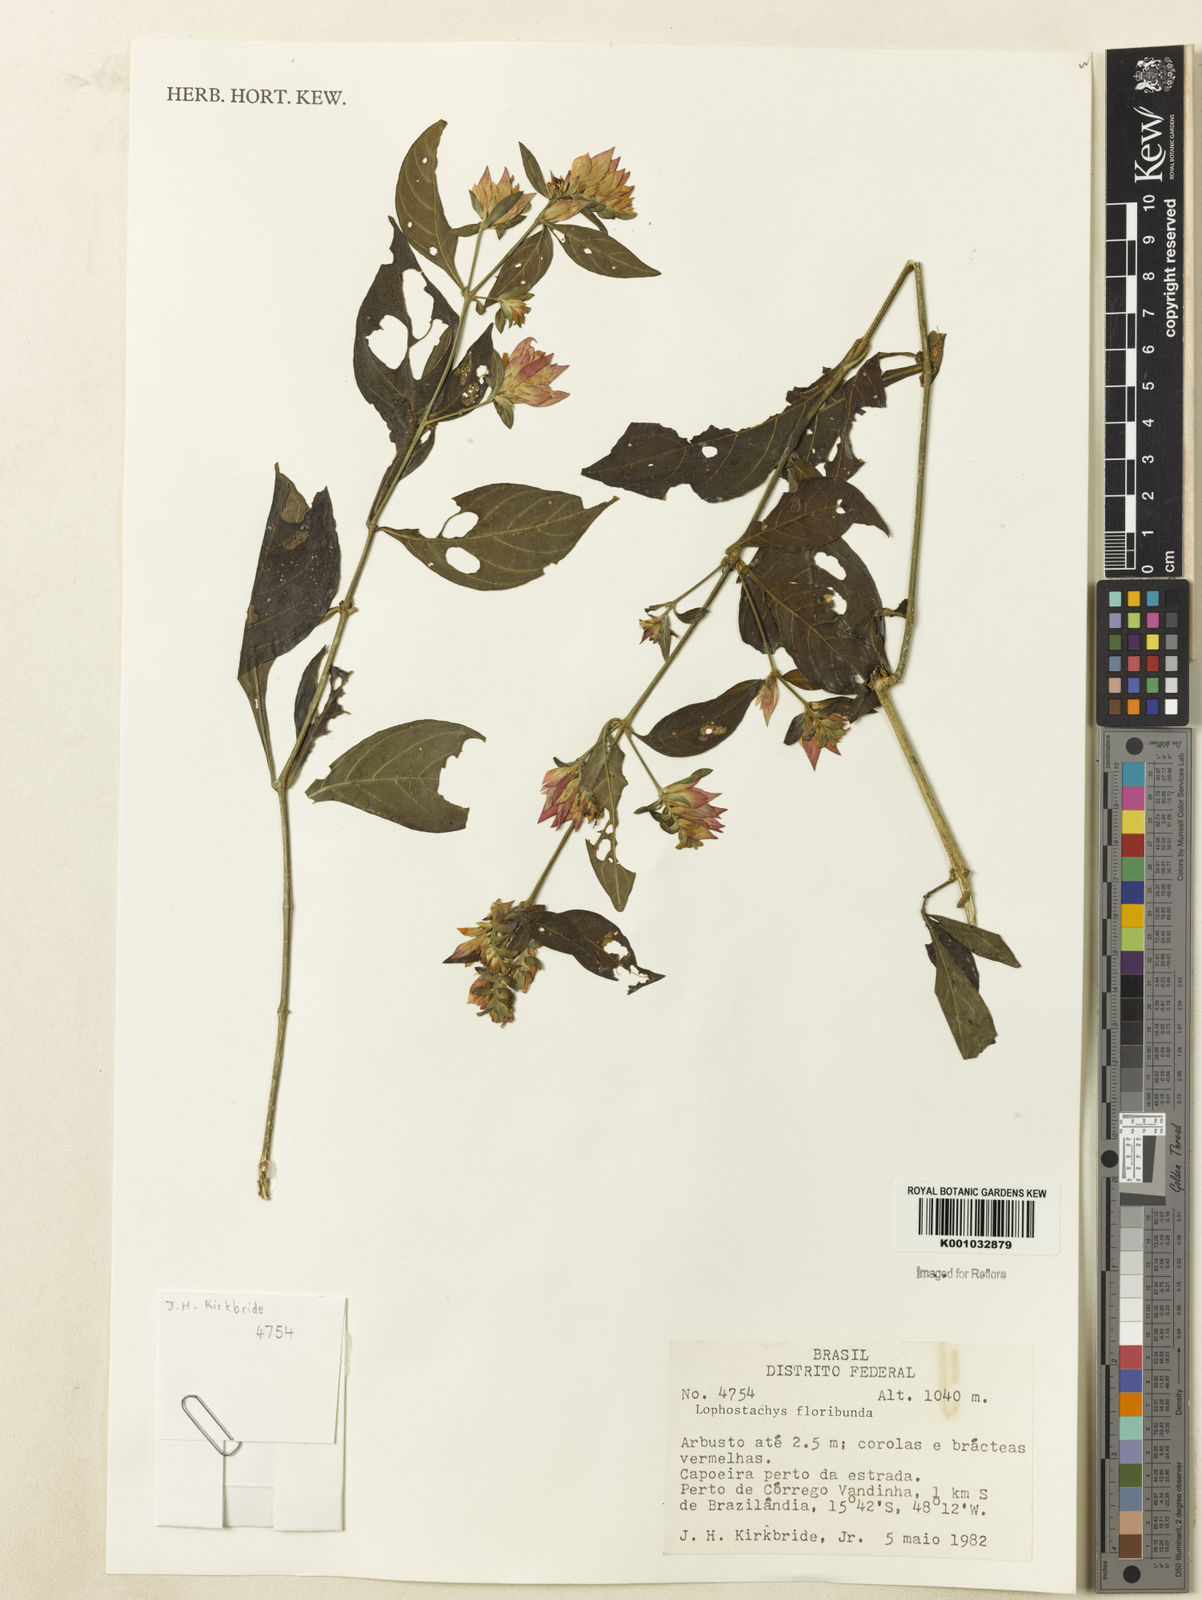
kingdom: Plantae
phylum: Tracheophyta
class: Magnoliopsida
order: Lamiales
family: Acanthaceae
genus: Lepidagathis
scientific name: Lepidagathis floribunda
